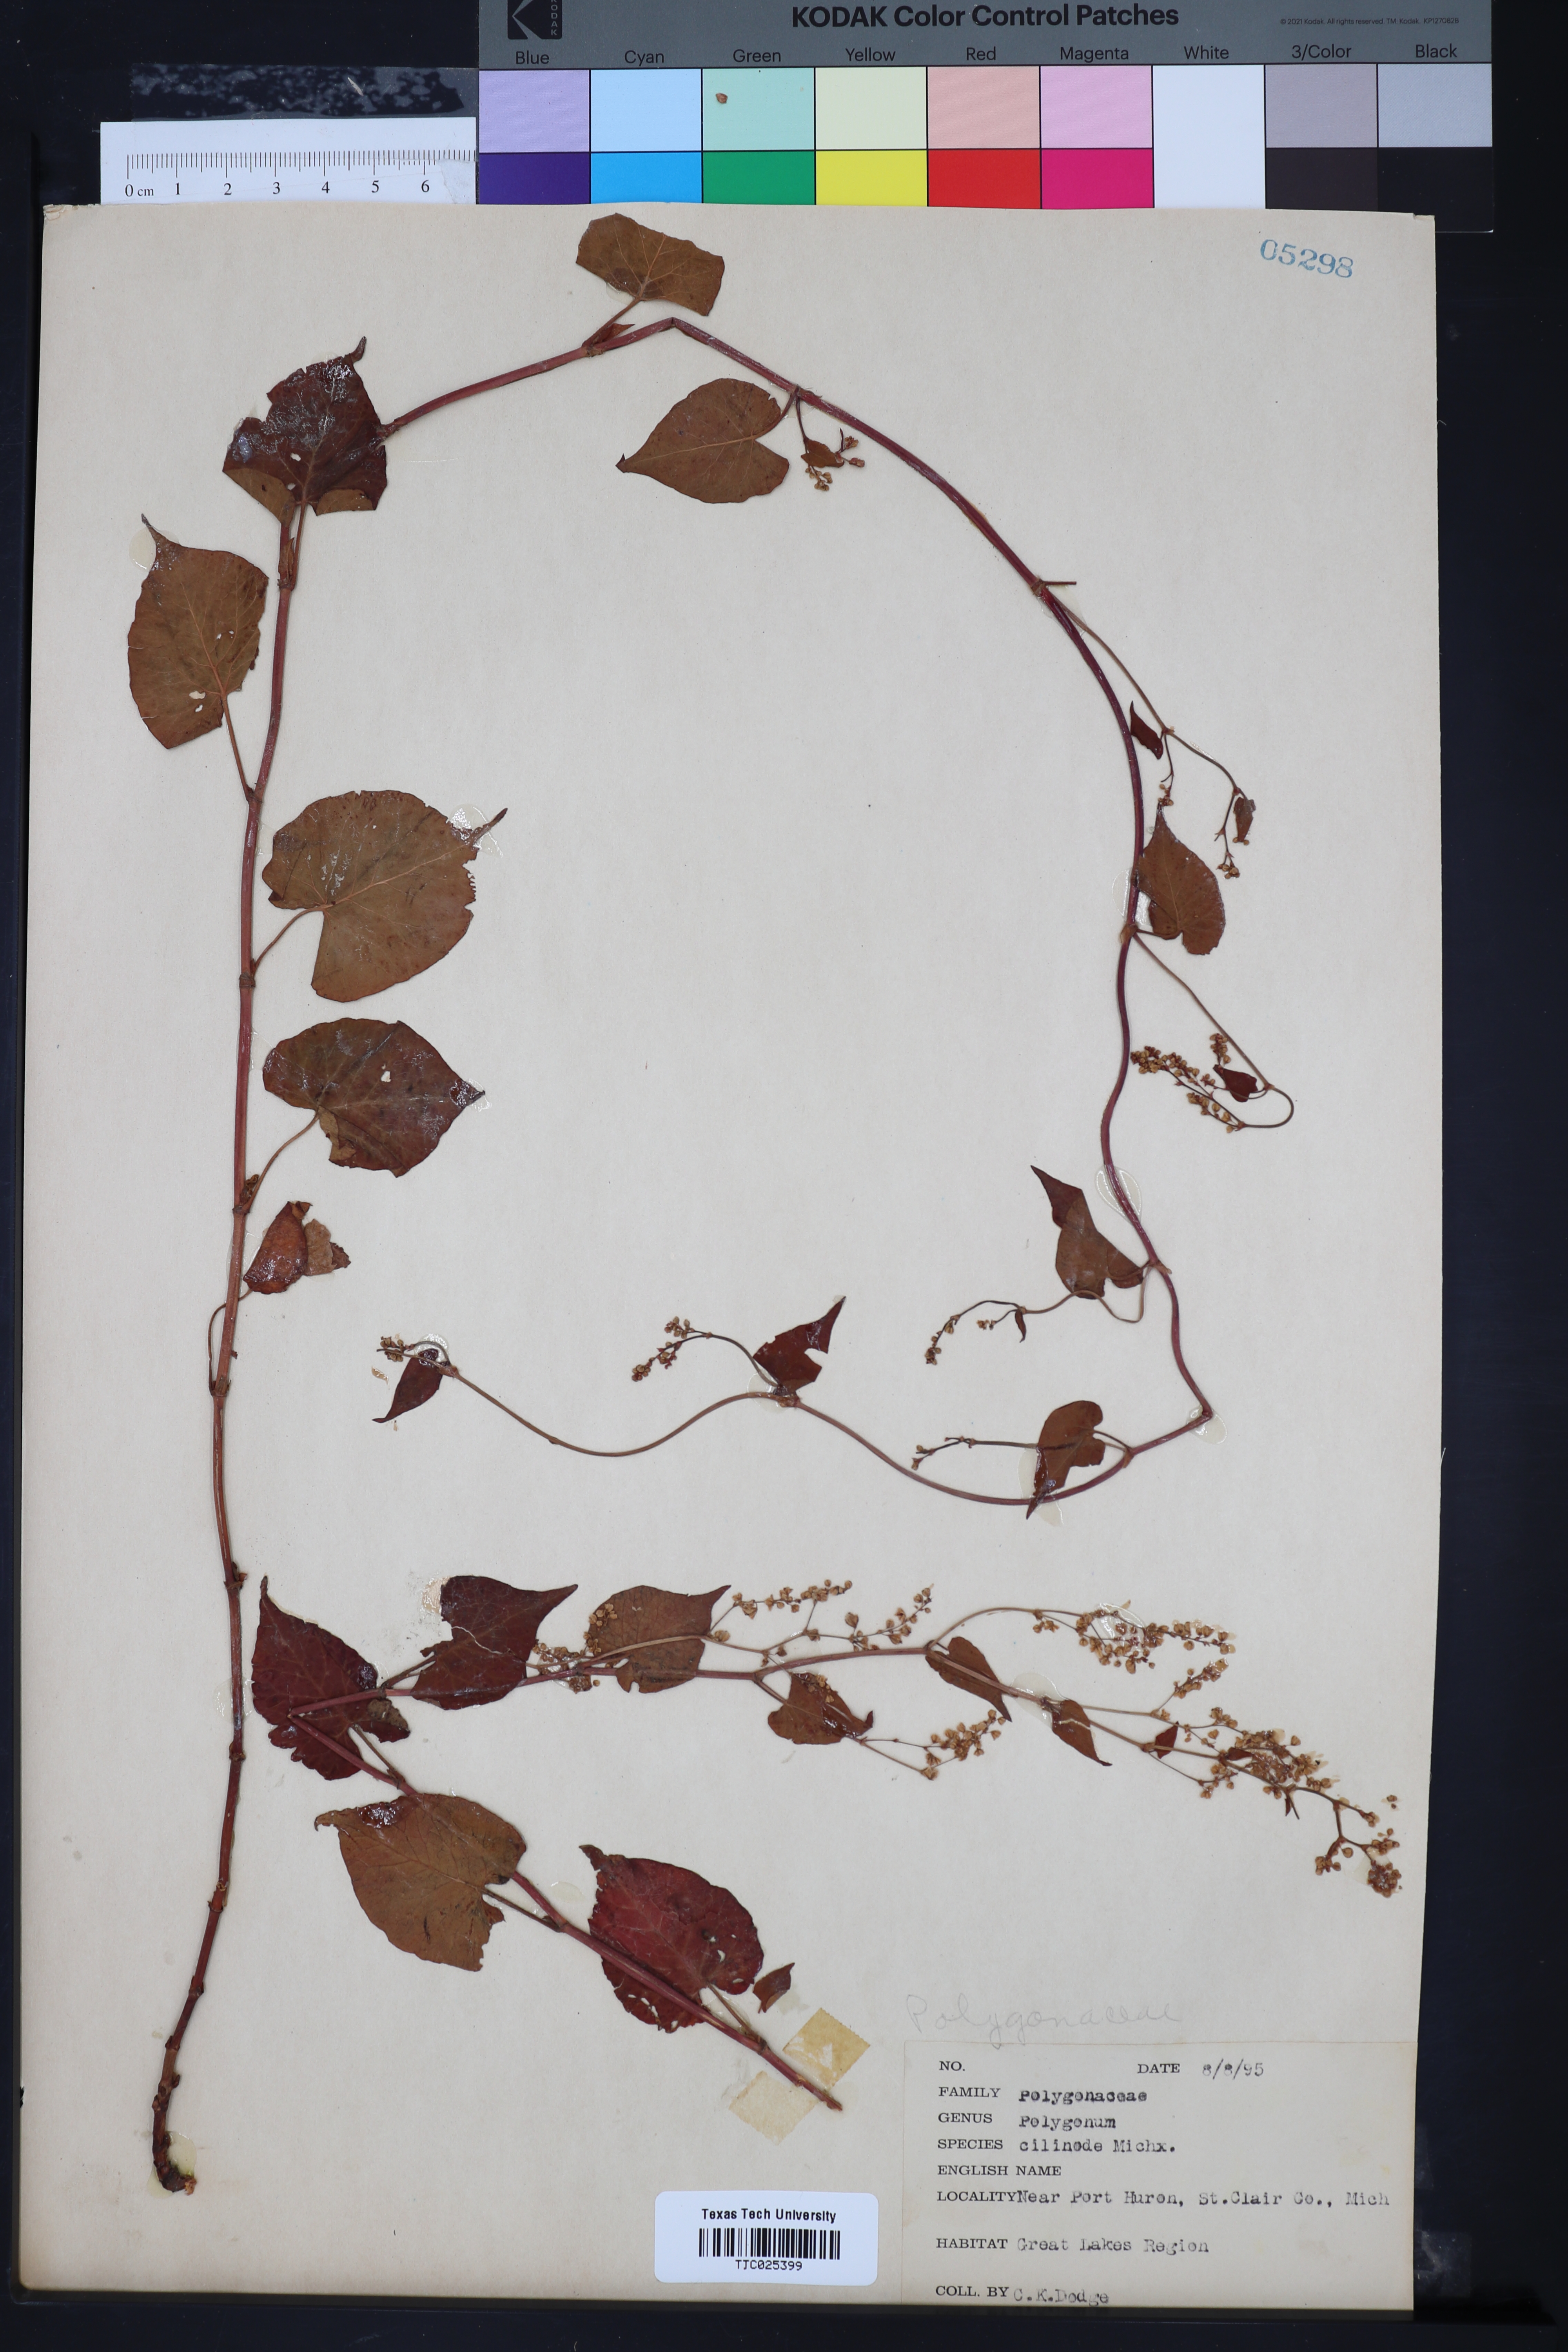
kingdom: Plantae
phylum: Tracheophyta
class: Magnoliopsida
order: Caryophyllales
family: Polygonaceae
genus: Parogonum
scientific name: Parogonum ciliinode
